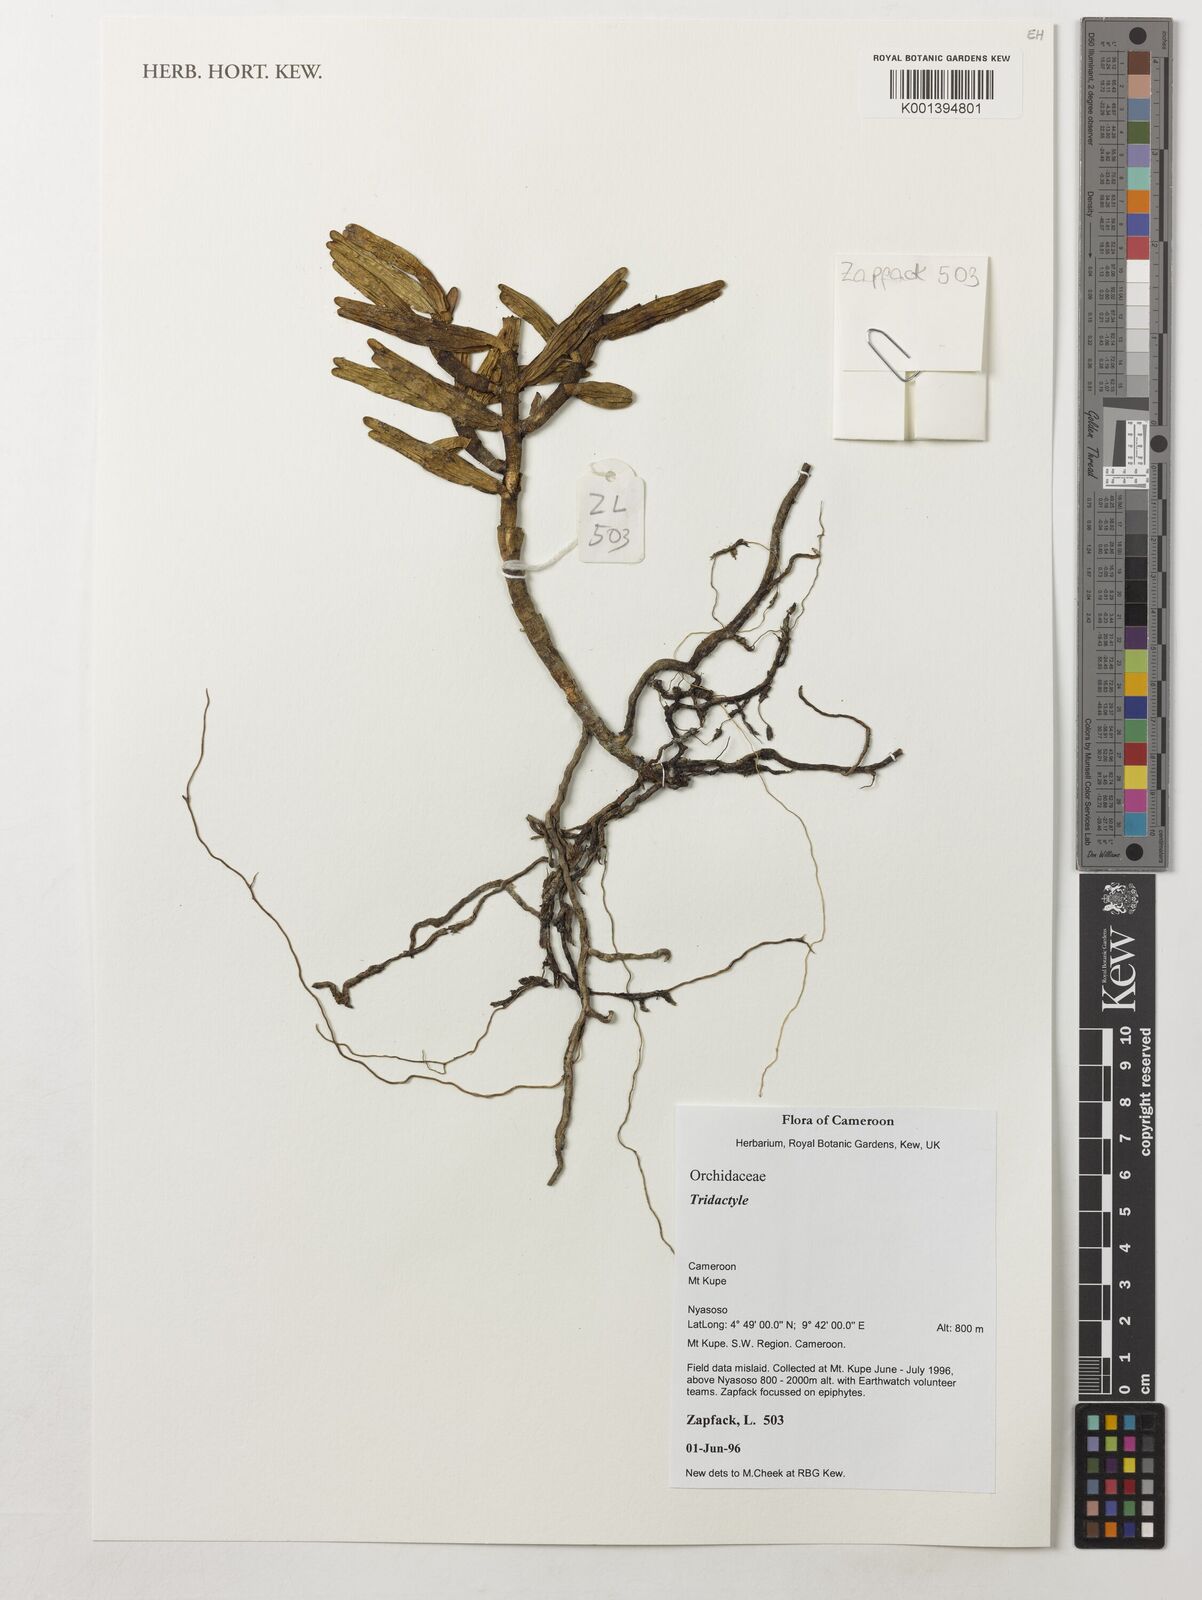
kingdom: Plantae
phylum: Tracheophyta
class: Liliopsida
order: Asparagales
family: Orchidaceae
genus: Tridactyle
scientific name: Tridactyle
